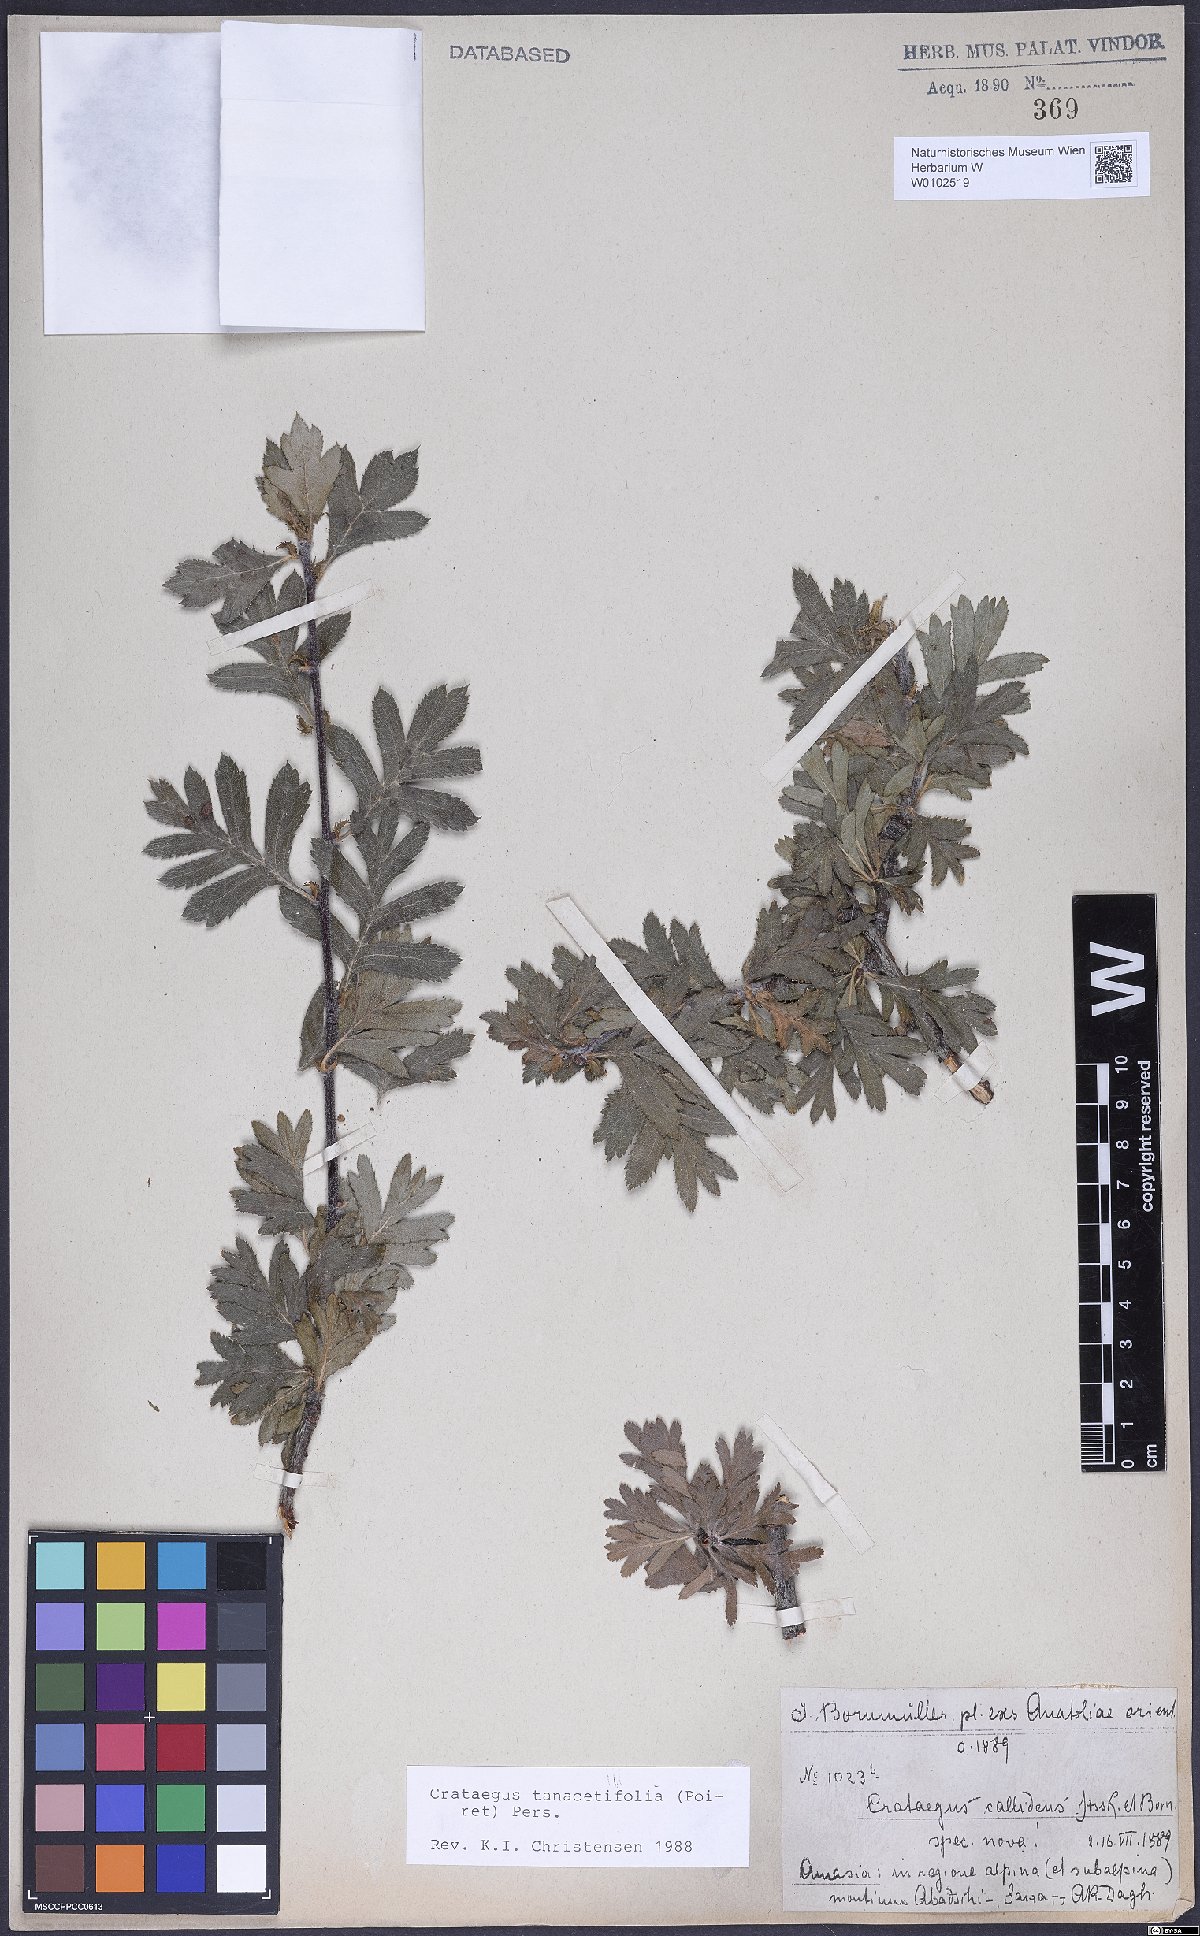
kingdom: Plantae
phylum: Tracheophyta
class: Magnoliopsida
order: Rosales
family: Rosaceae
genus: Crataegus
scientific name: Crataegus tanacetifolia
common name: Tansy-leaved thorn
